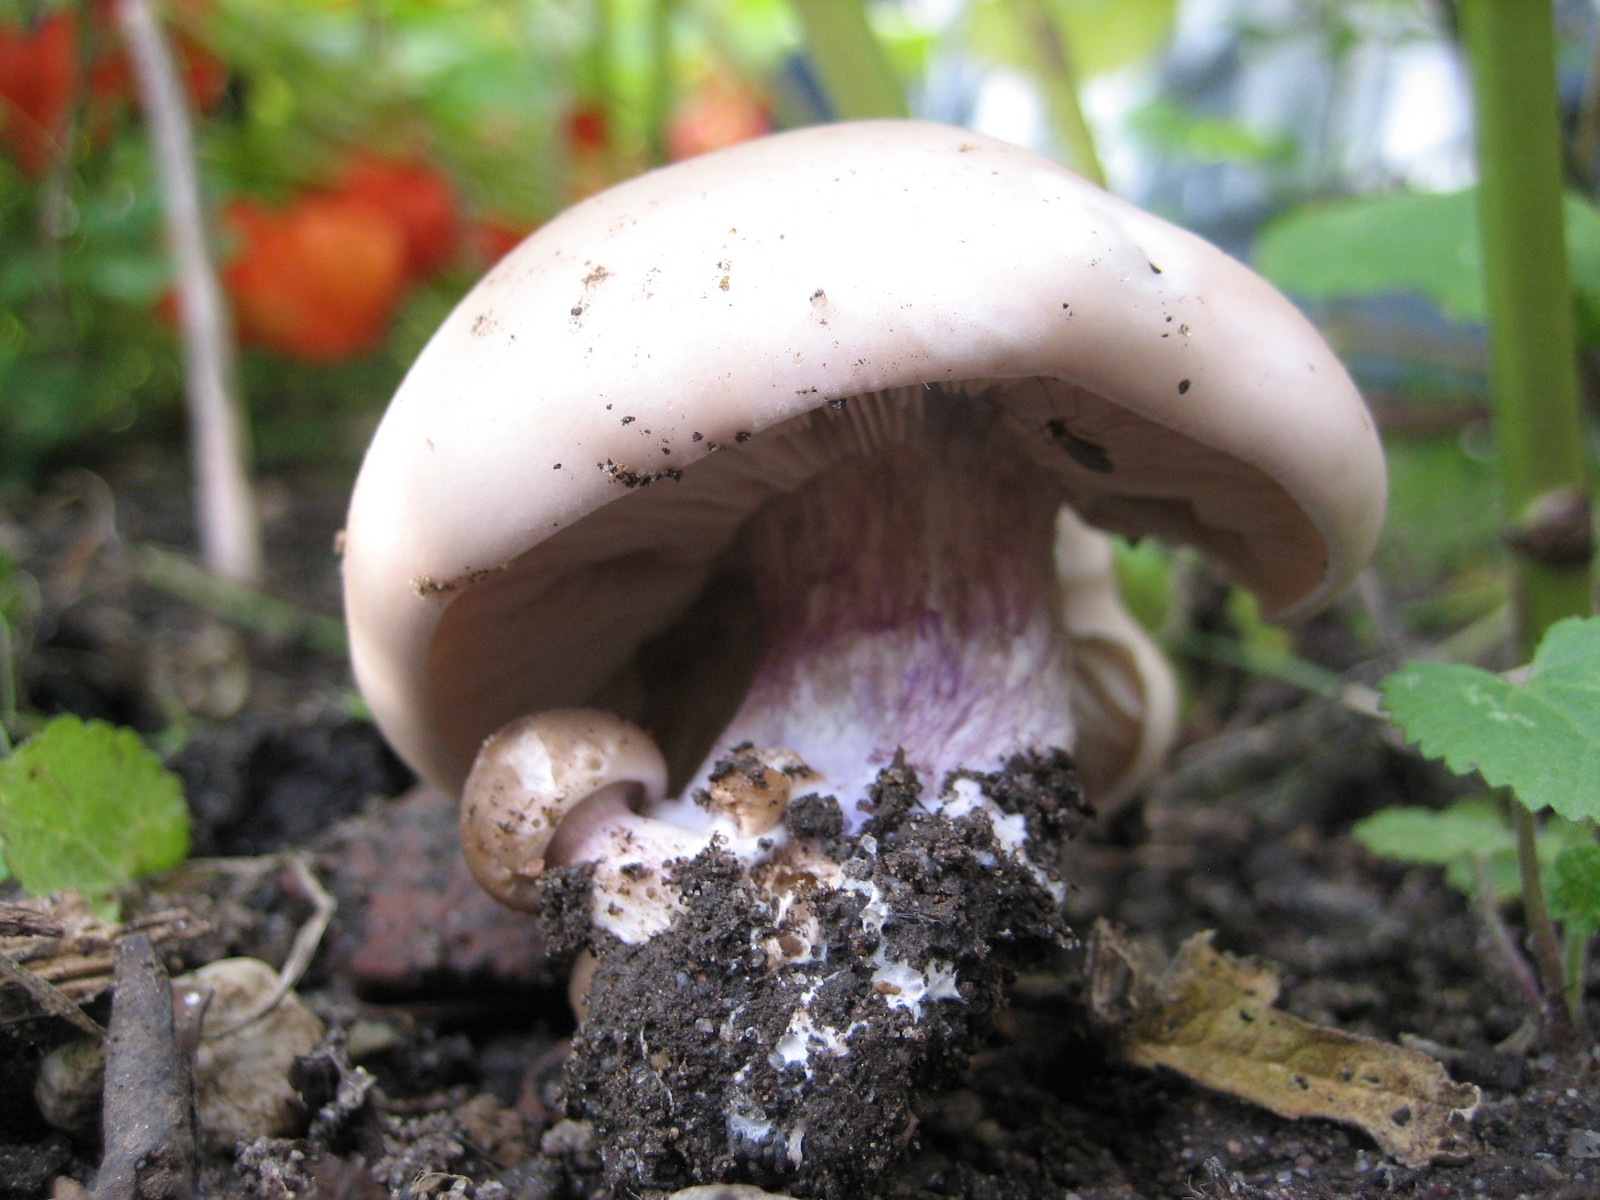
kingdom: Fungi
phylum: Basidiomycota
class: Agaricomycetes
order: Agaricales
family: Tricholomataceae
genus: Lepista
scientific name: Lepista personata
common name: bleg hekseringshat
